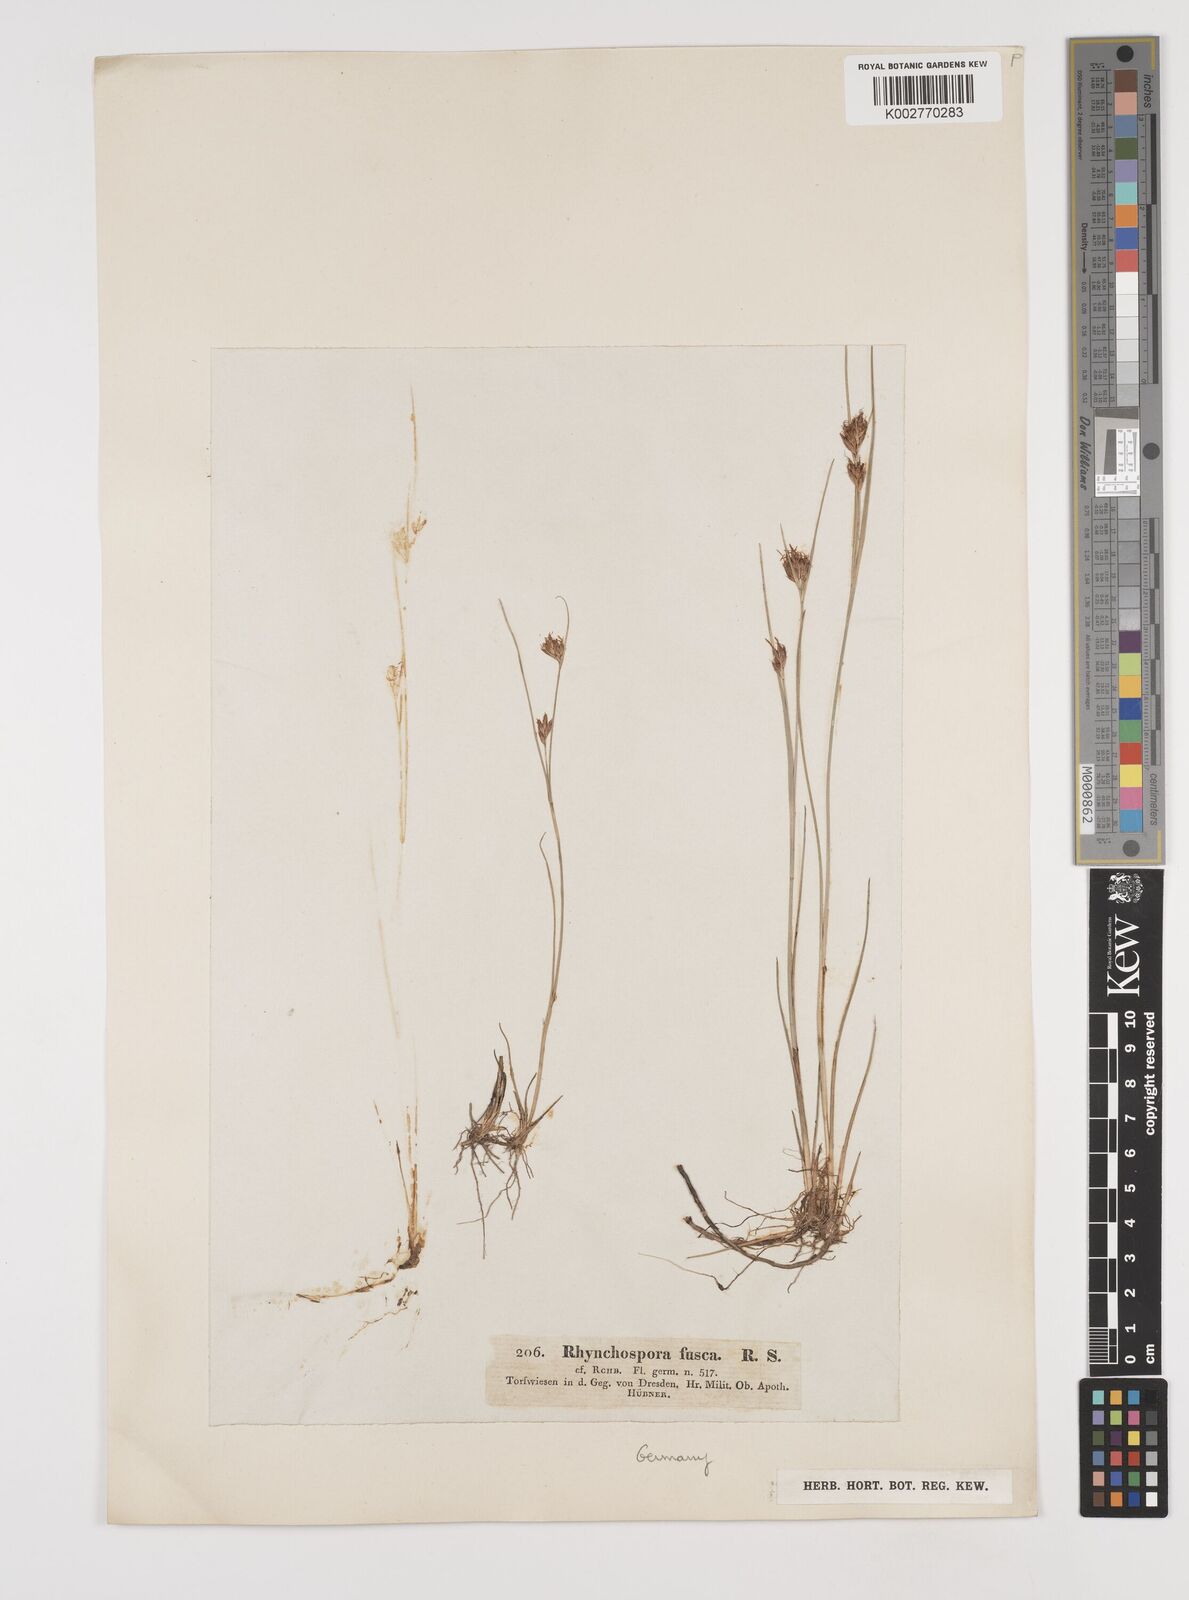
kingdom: Plantae
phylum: Tracheophyta
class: Liliopsida
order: Poales
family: Cyperaceae
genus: Rhynchospora
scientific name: Rhynchospora fusca
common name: Brown beak-sedge
